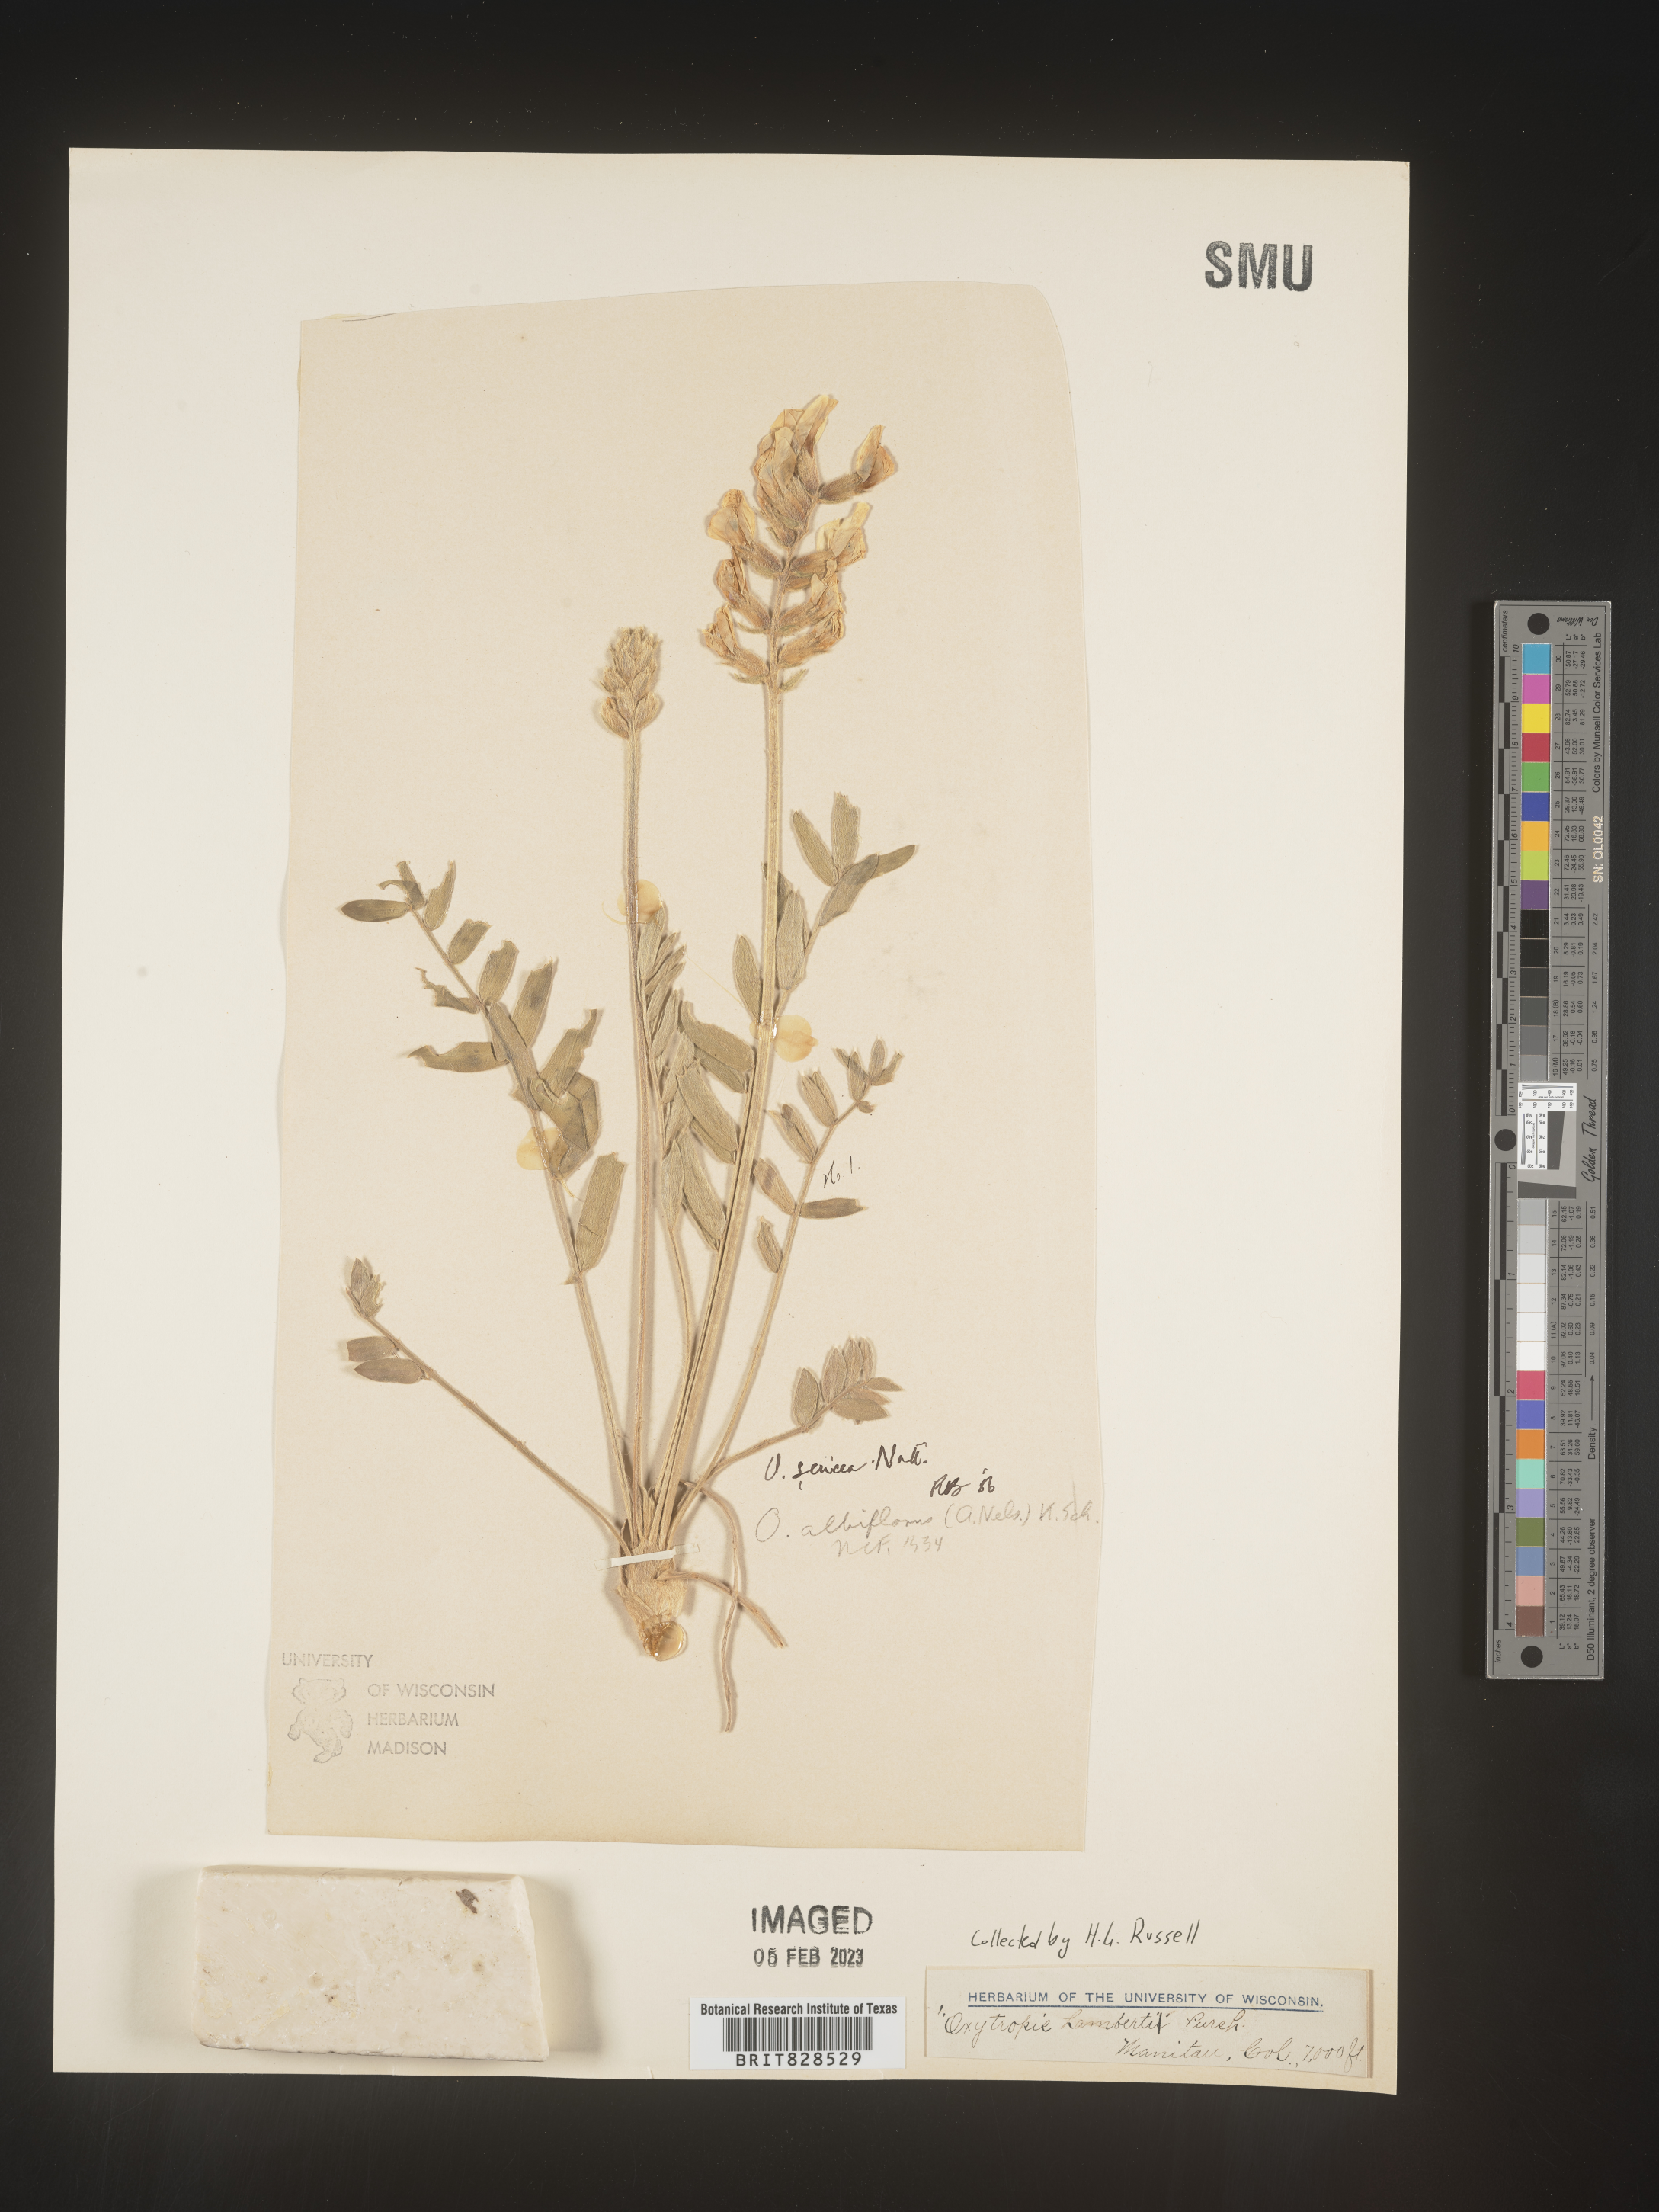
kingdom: Plantae
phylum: Tracheophyta
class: Magnoliopsida
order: Fabales
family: Fabaceae
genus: Oxytropis
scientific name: Oxytropis sericea
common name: Silky locoweed
